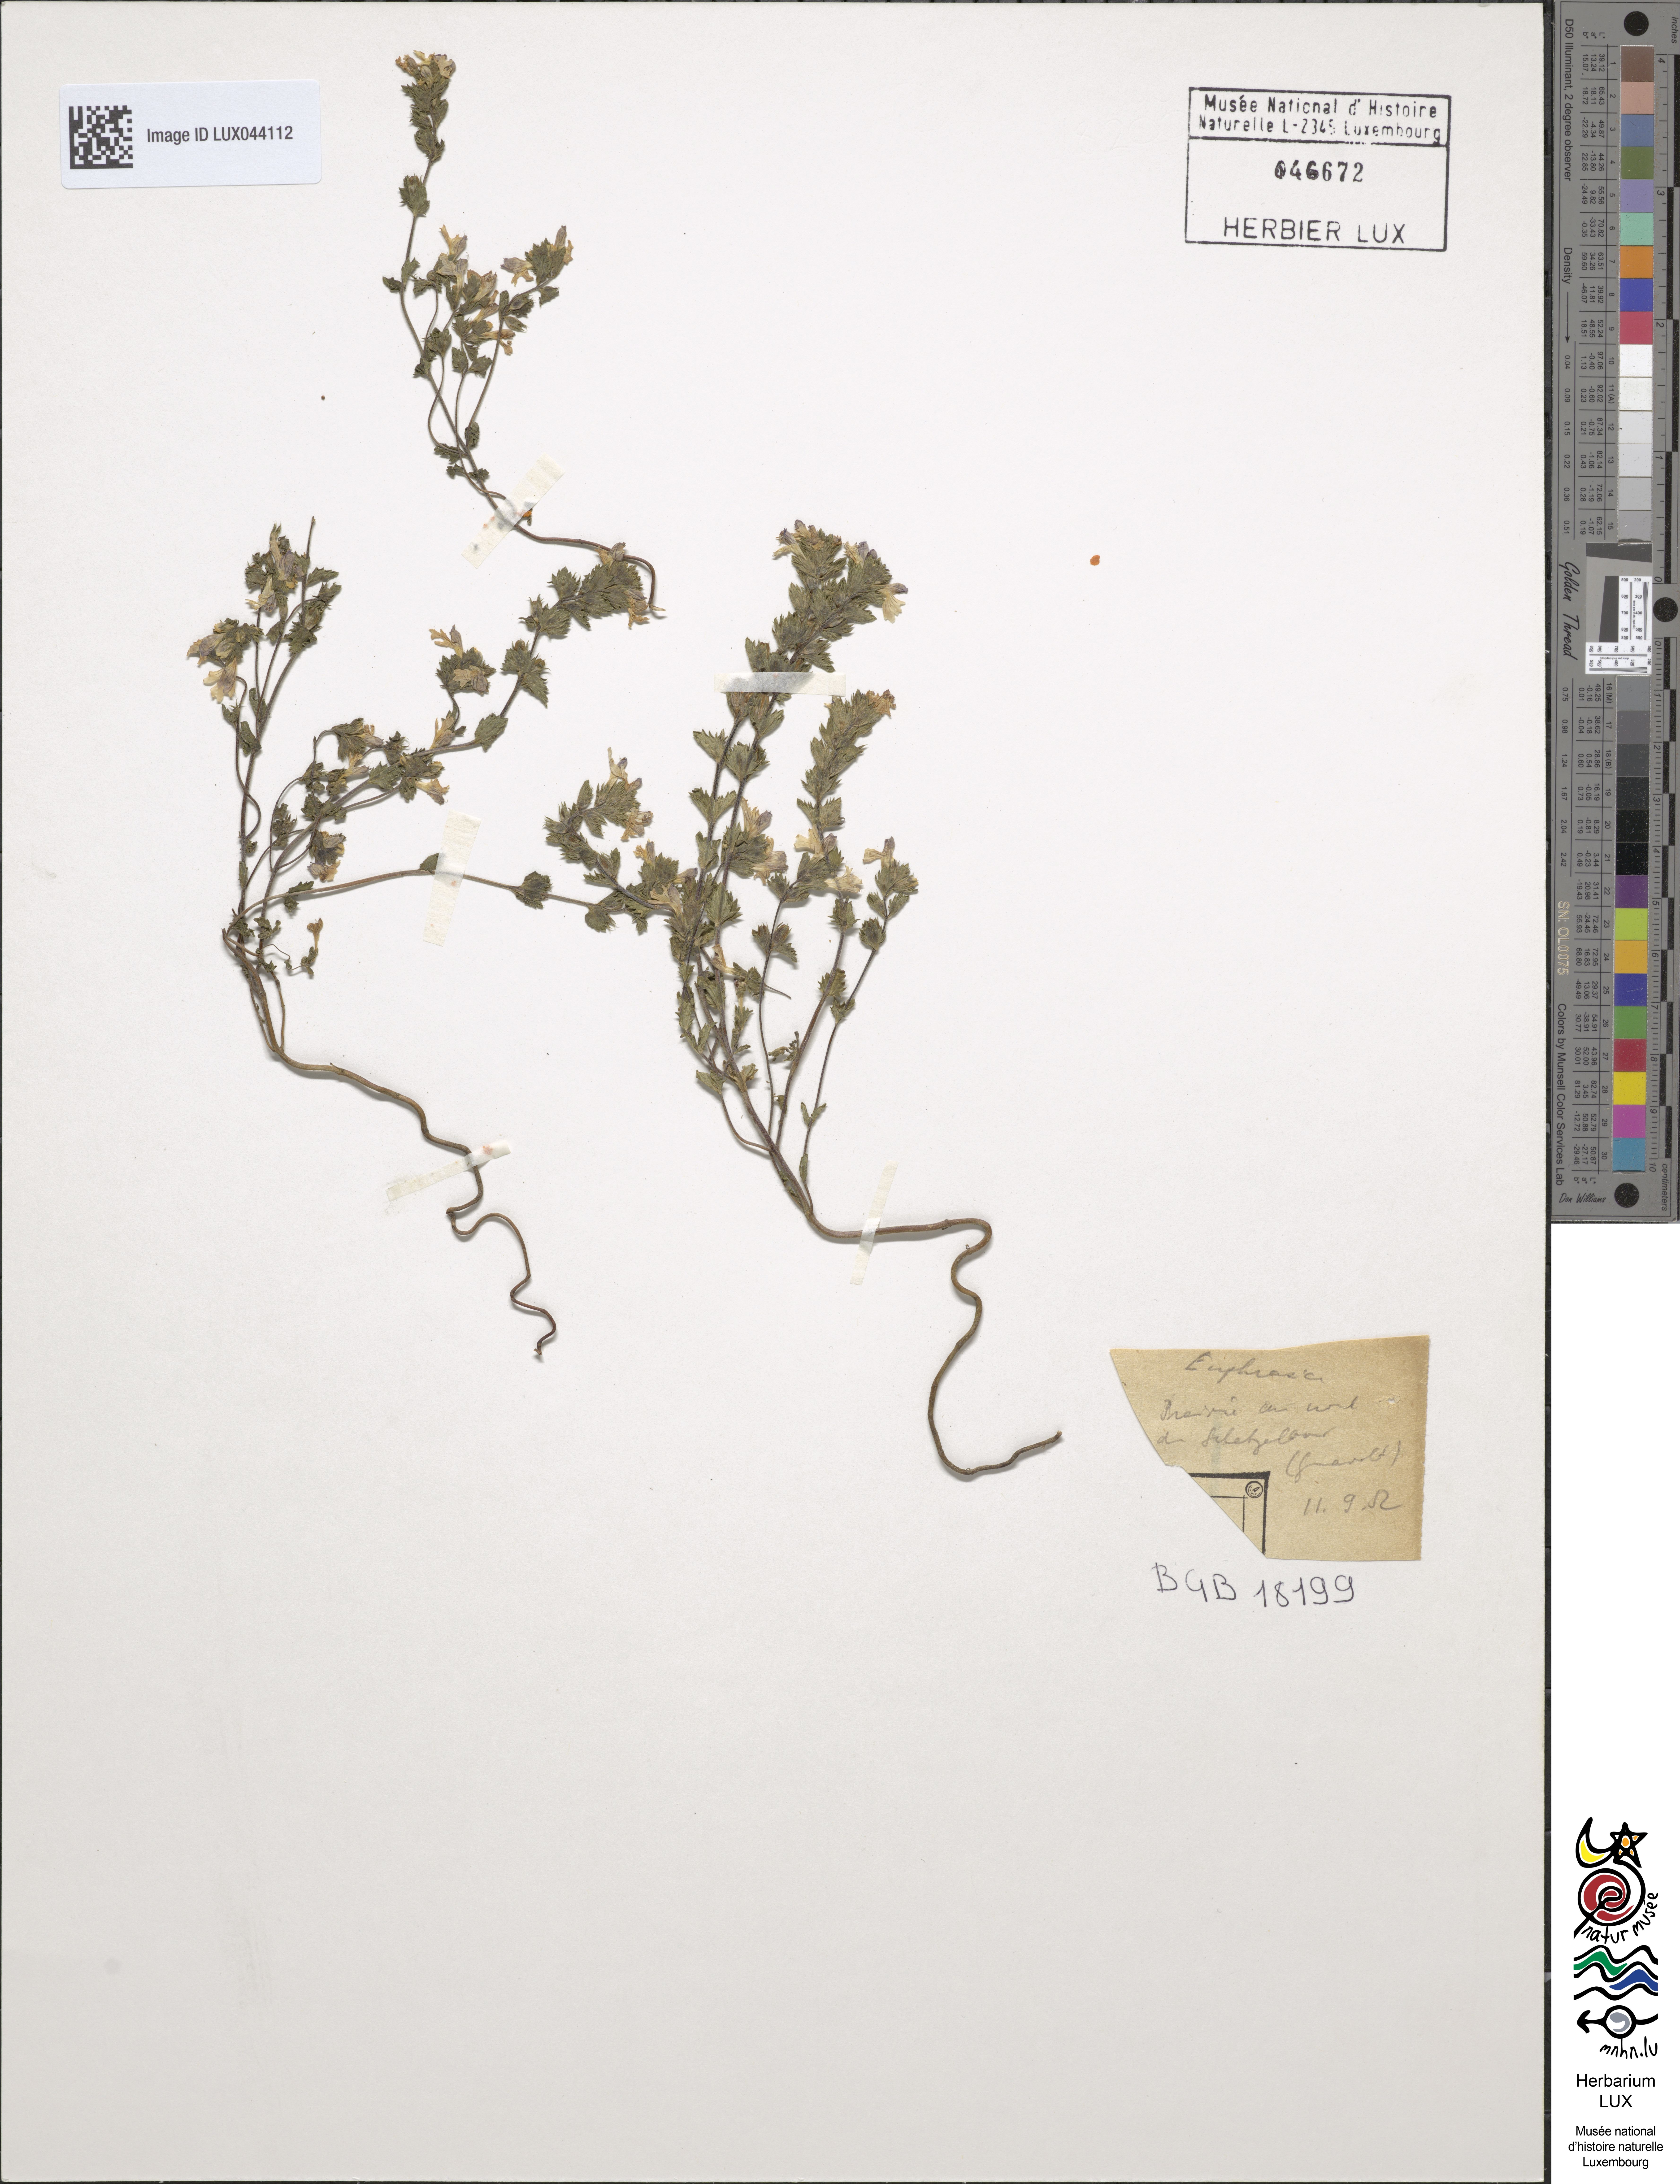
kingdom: Plantae
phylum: Tracheophyta
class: Magnoliopsida
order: Lamiales
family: Orobanchaceae
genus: Euphrasia
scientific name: Euphrasia
